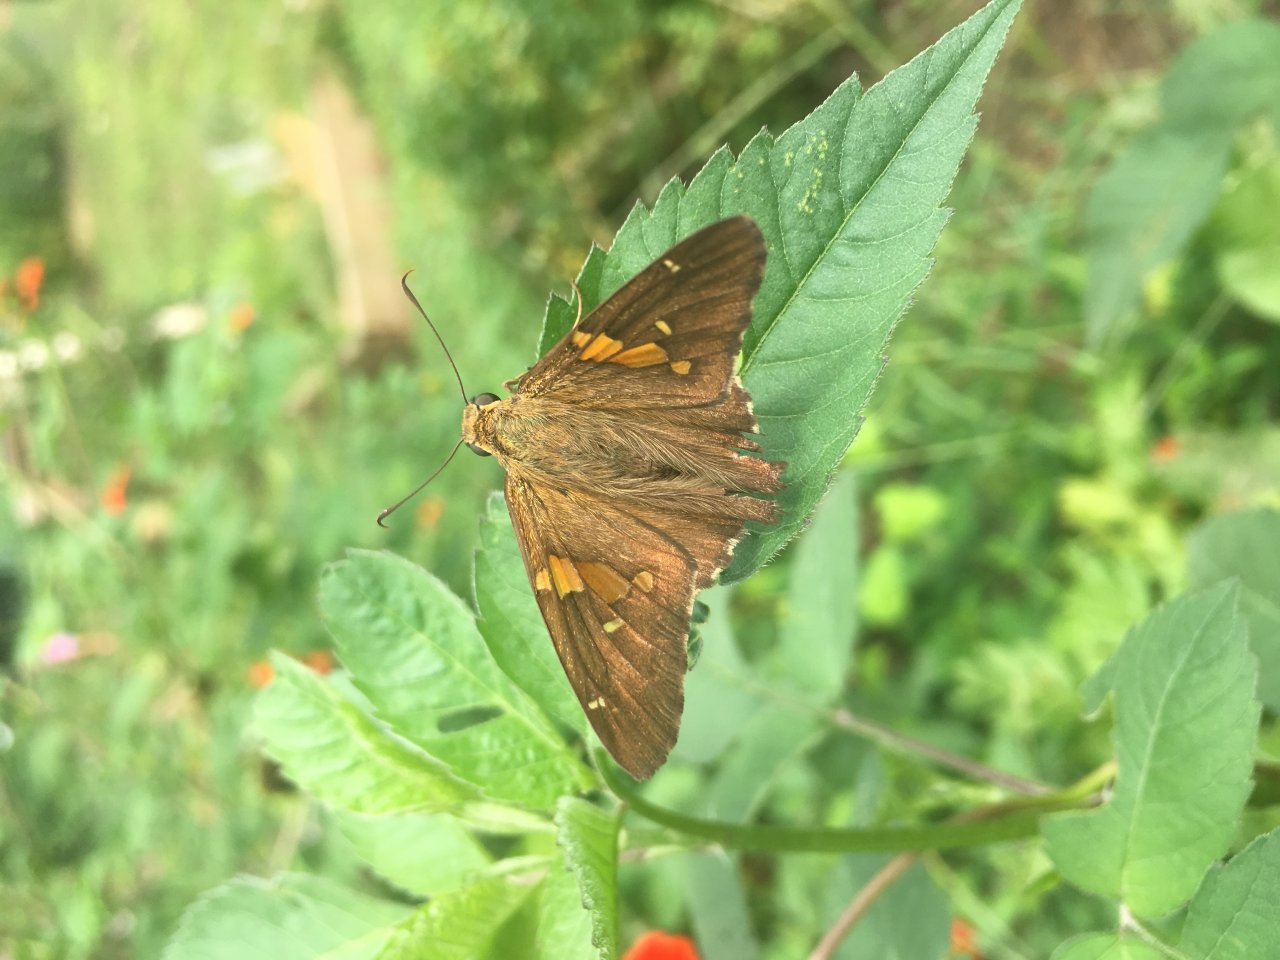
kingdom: Animalia
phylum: Arthropoda
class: Insecta
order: Lepidoptera
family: Hesperiidae
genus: Epargyreus
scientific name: Epargyreus clarus
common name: Silver-spotted Skipper
